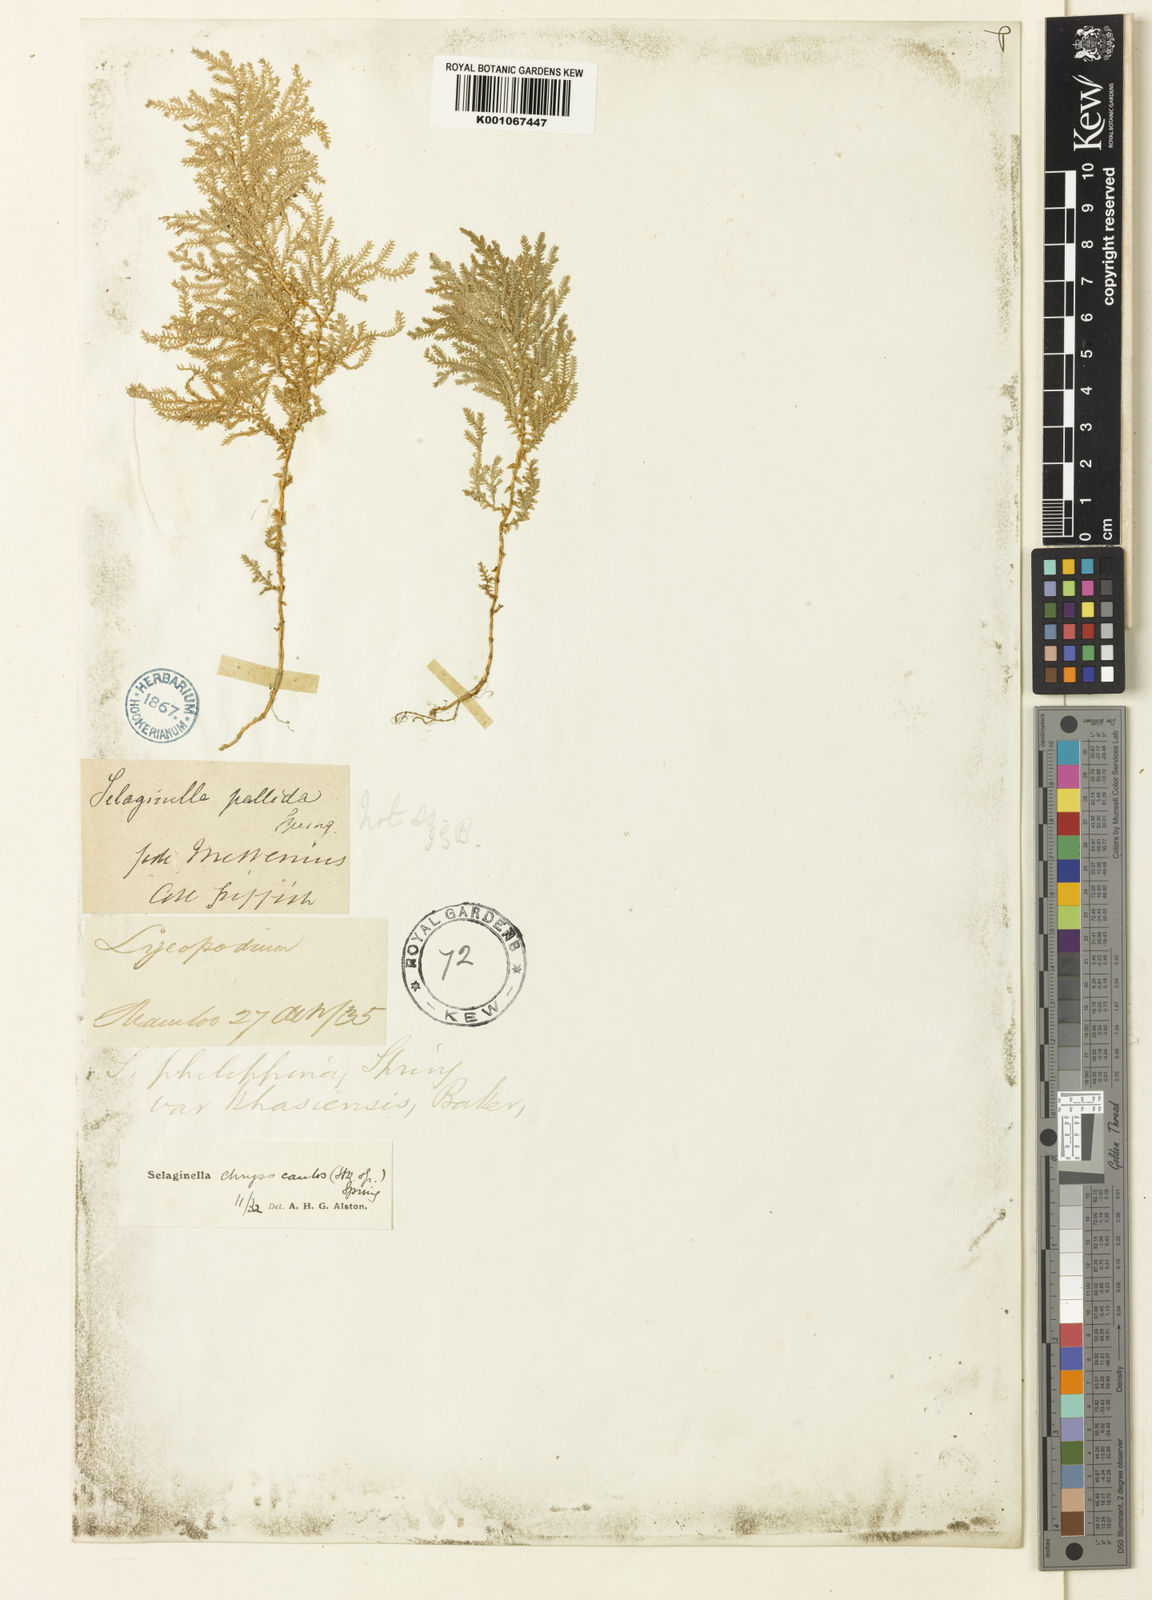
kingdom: Plantae
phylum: Tracheophyta
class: Lycopodiopsida
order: Selaginellales
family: Selaginellaceae
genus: Selaginella
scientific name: Selaginella chrysocaulos
